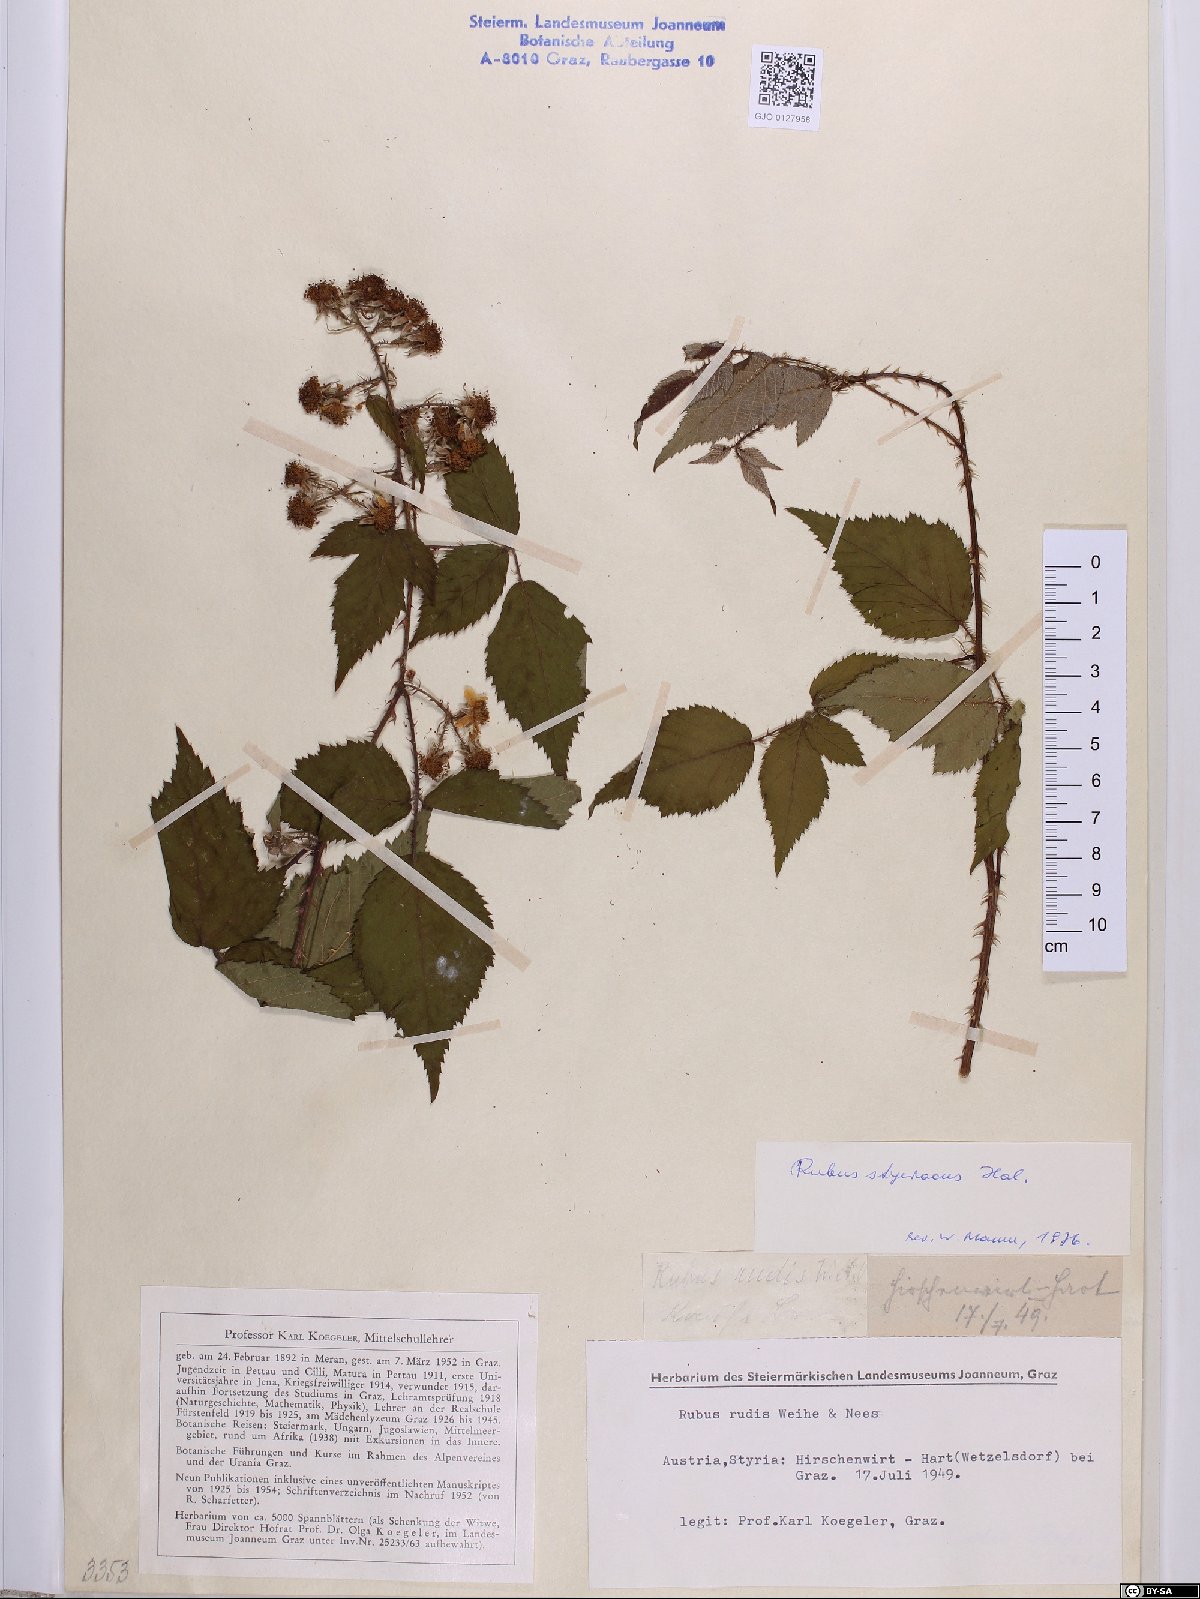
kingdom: Plantae
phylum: Tracheophyta
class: Magnoliopsida
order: Rosales
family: Rosaceae
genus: Rubus
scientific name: Rubus styriacus
